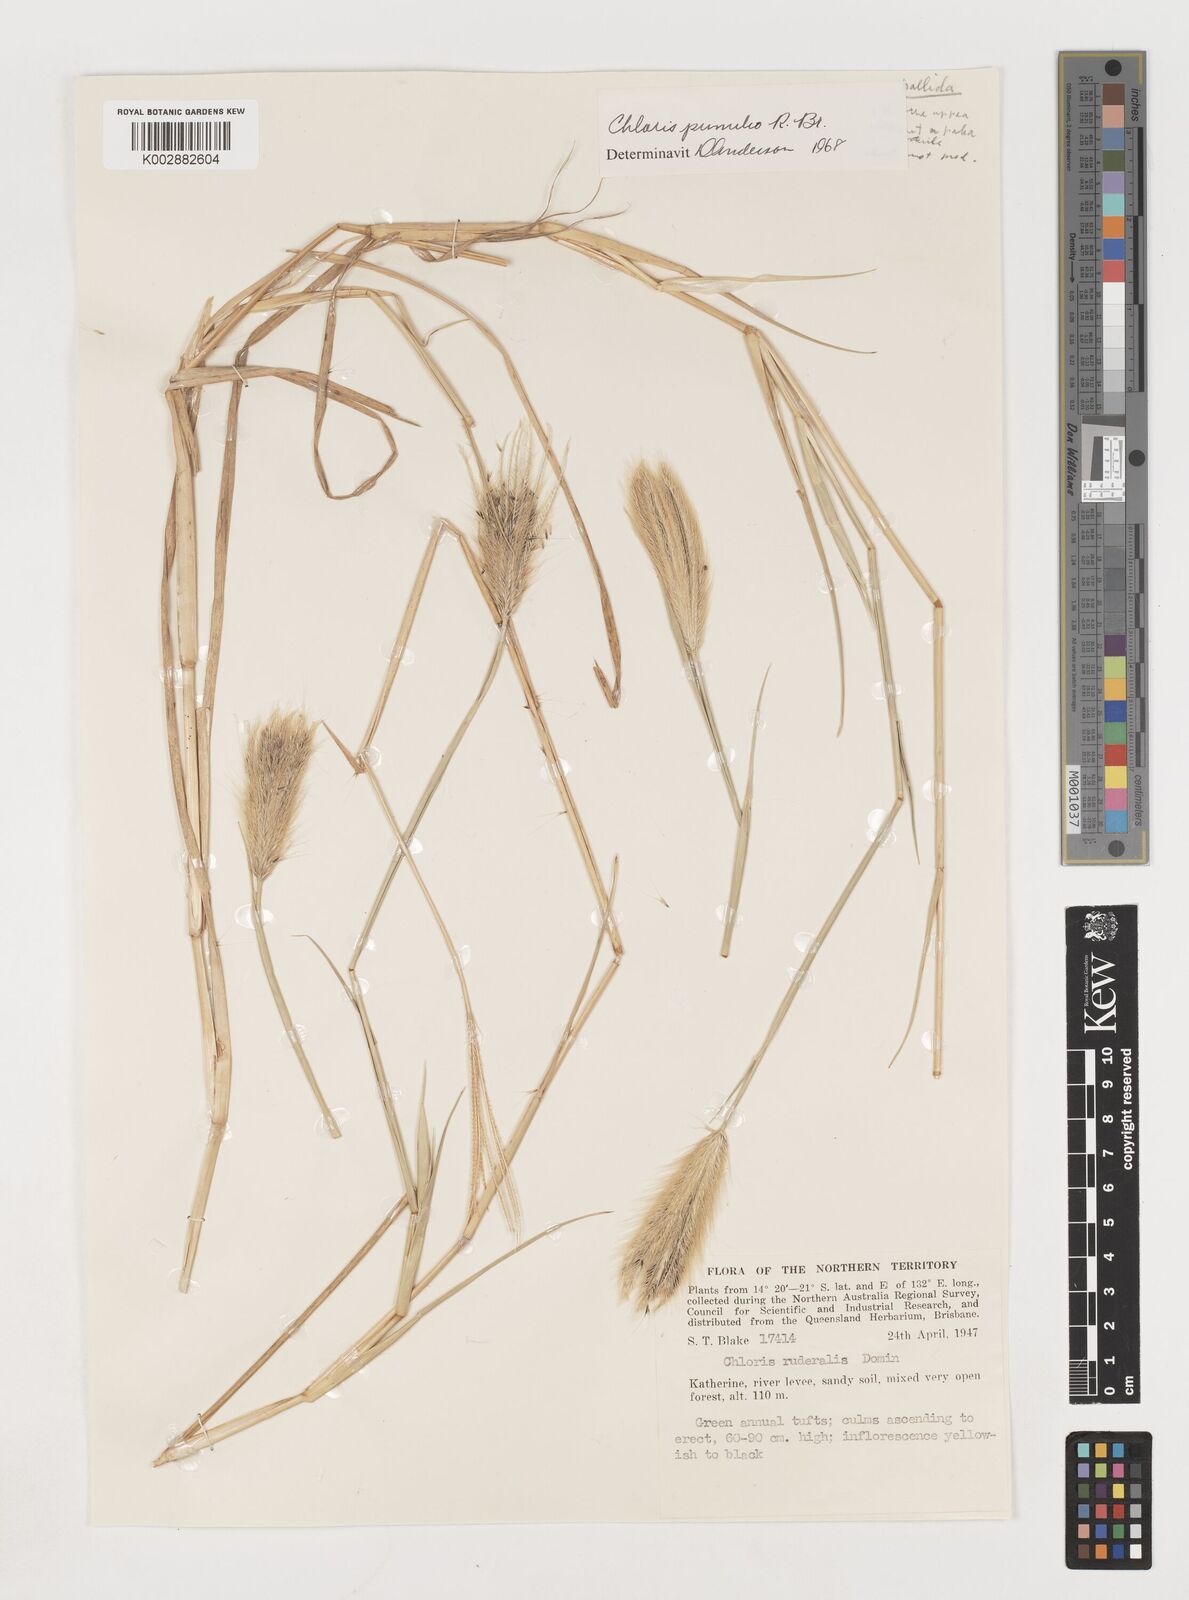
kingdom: Plantae
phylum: Tracheophyta
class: Liliopsida
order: Poales
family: Poaceae
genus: Chloris
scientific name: Chloris pumilio
